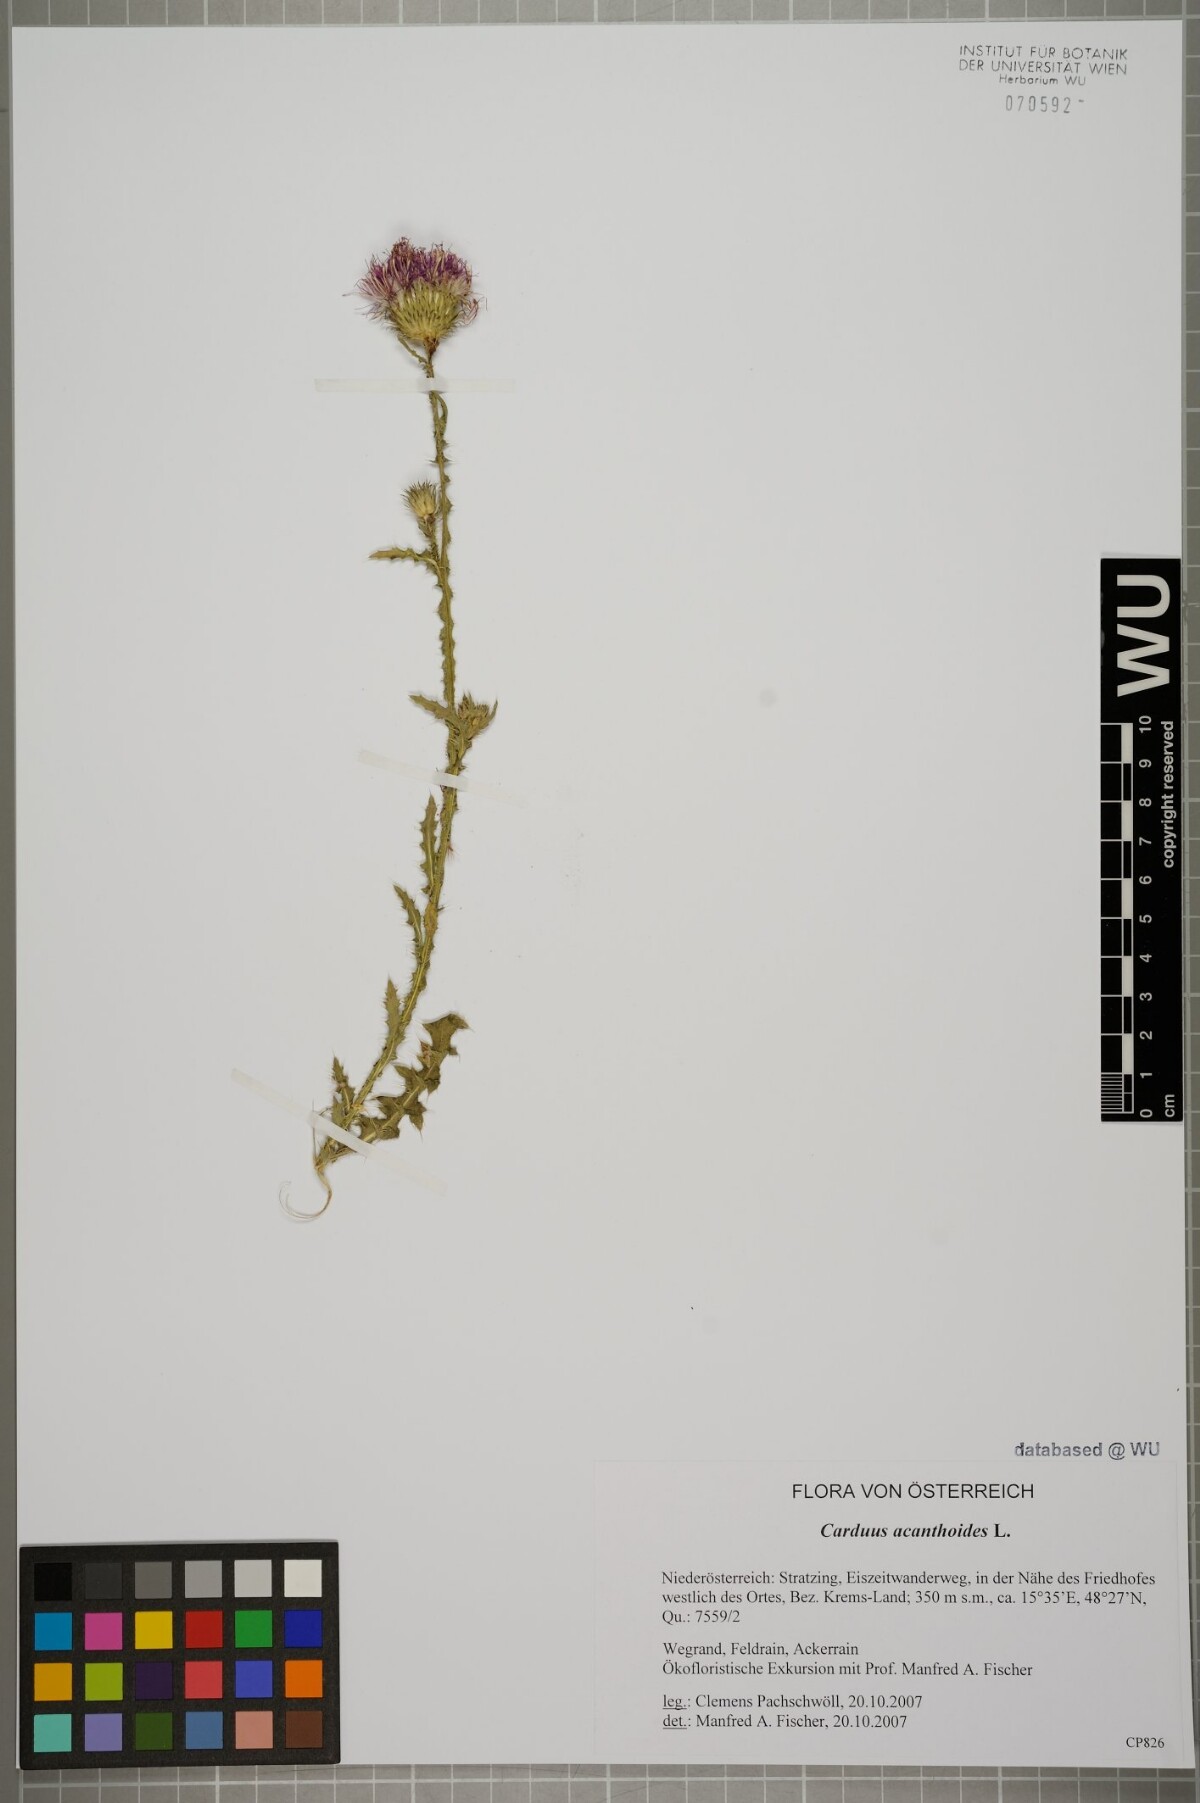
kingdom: Plantae
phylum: Tracheophyta
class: Magnoliopsida
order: Asterales
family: Asteraceae
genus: Carduus
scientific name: Carduus acanthoides
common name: Plumeless thistle
